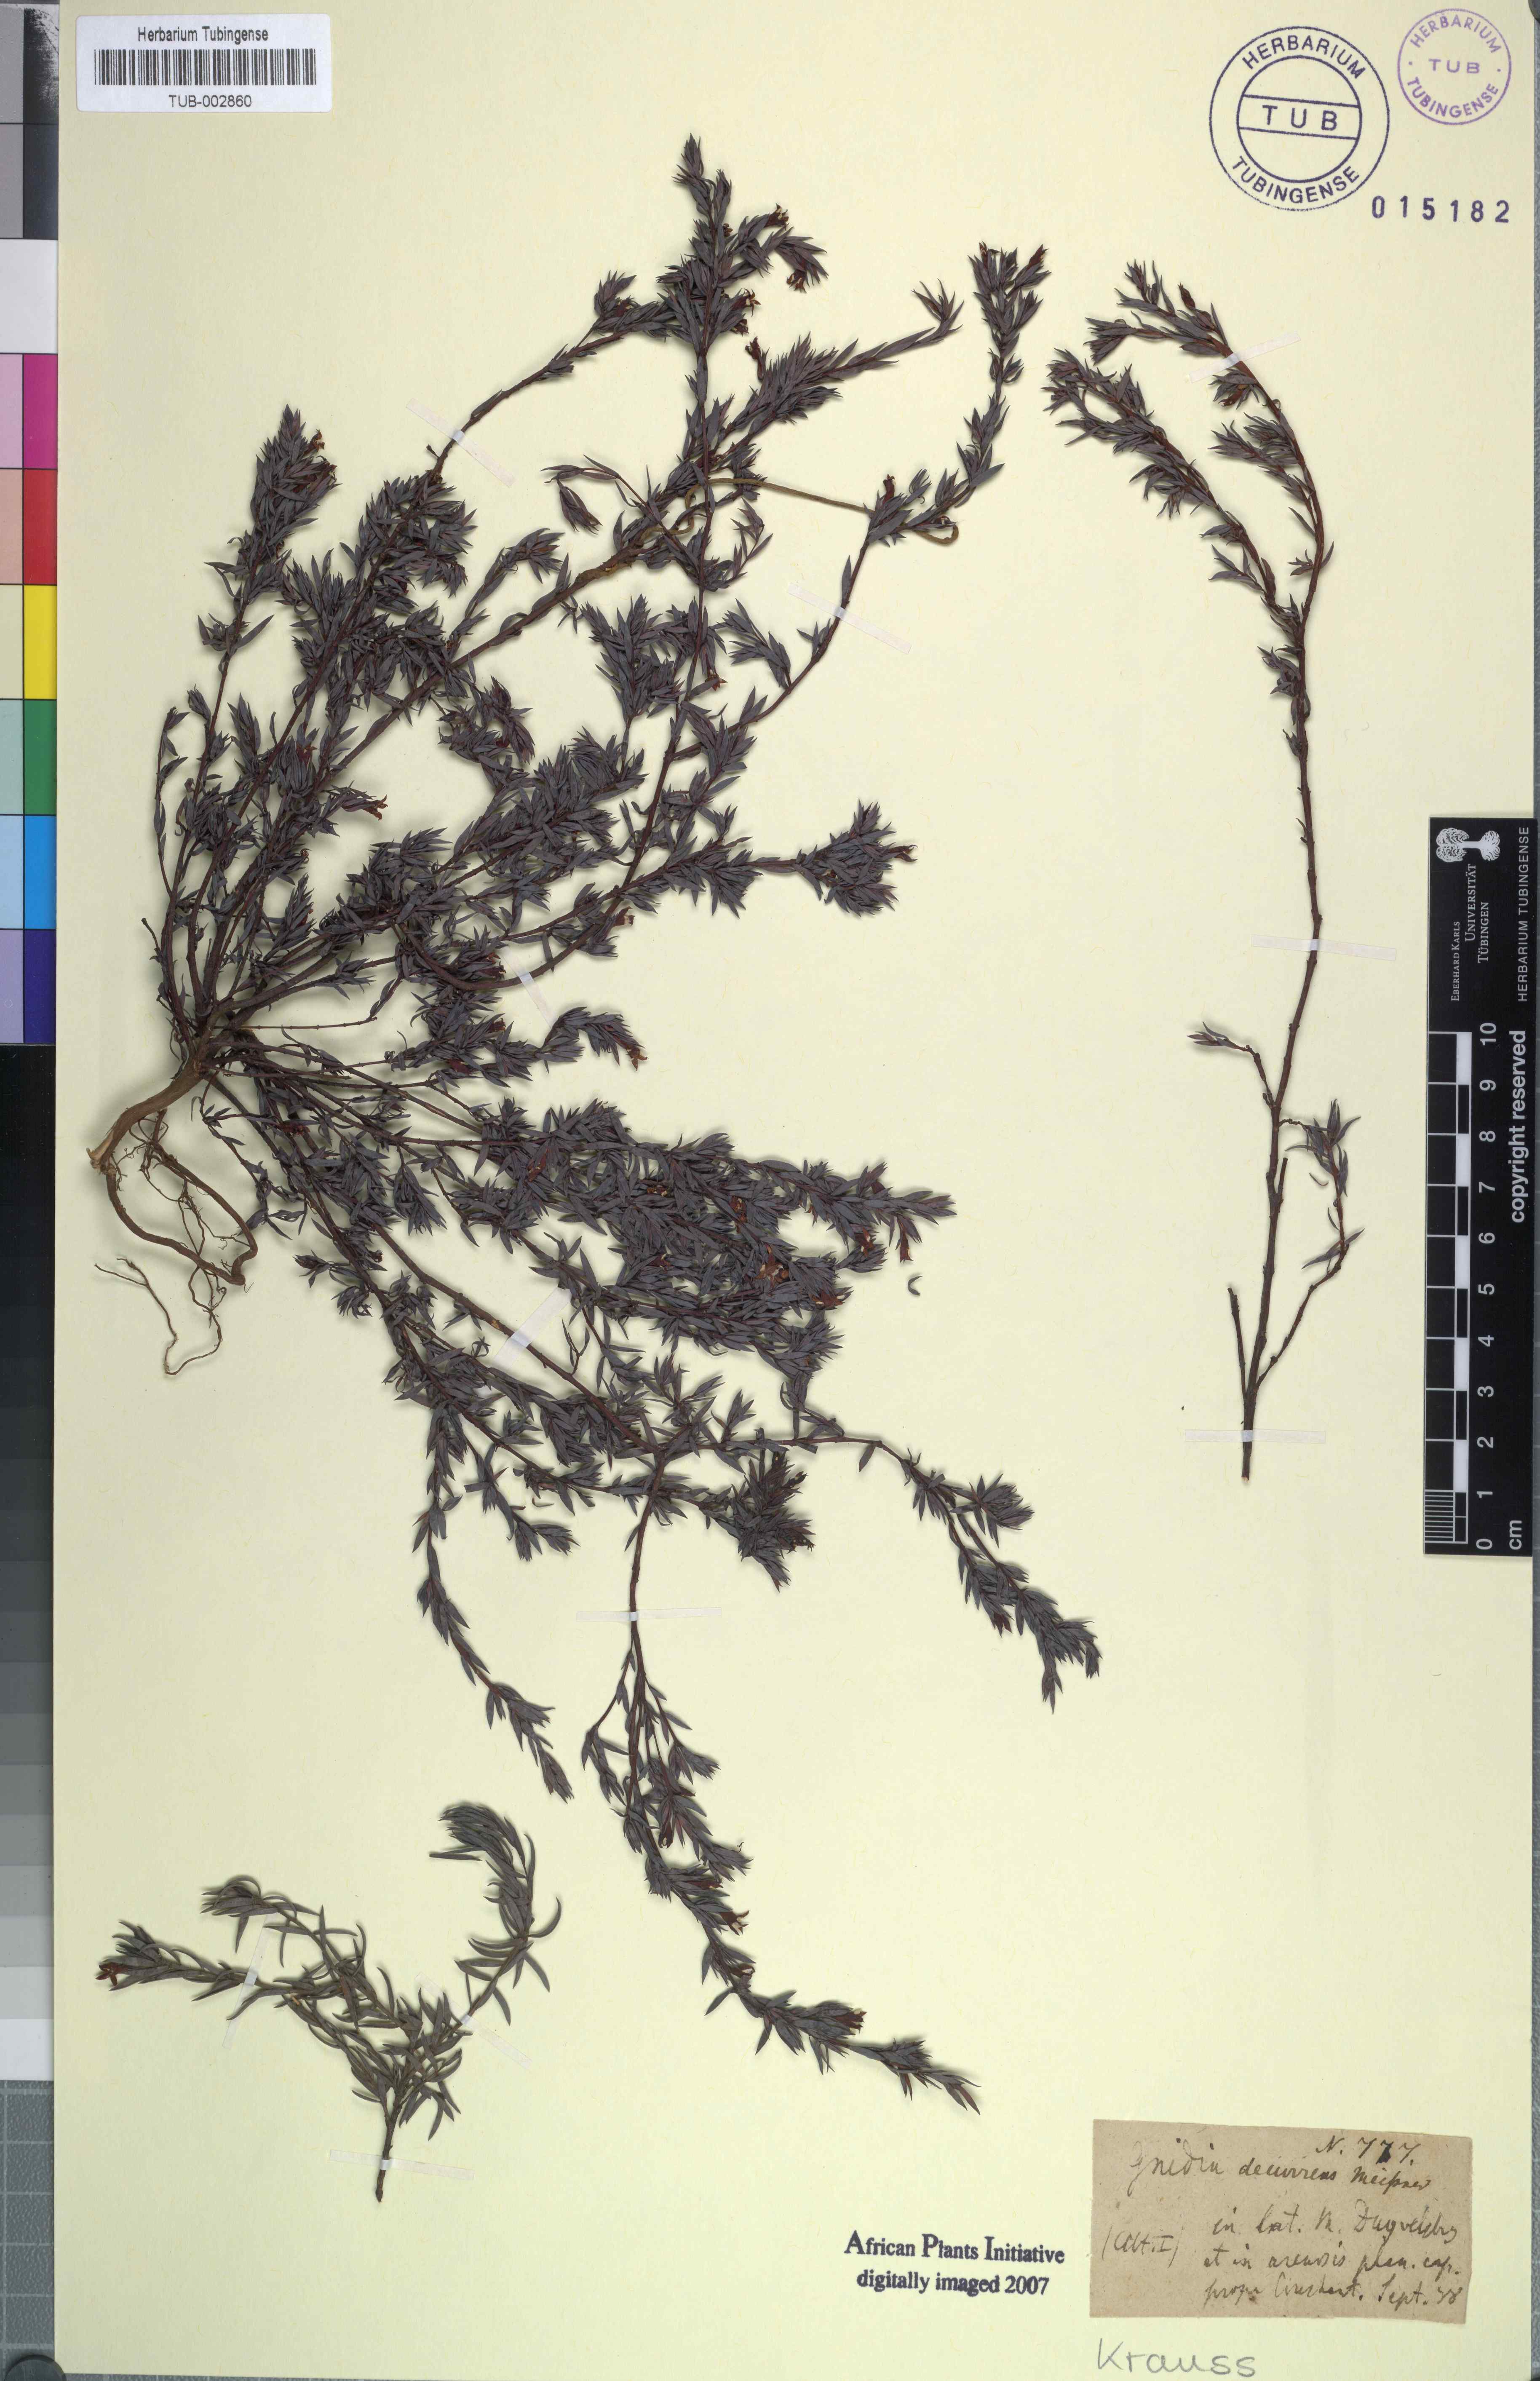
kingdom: Plantae
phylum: Tracheophyta
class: Magnoliopsida
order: Malvales
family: Thymelaeaceae
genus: Gnidia
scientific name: Gnidia decurrens
